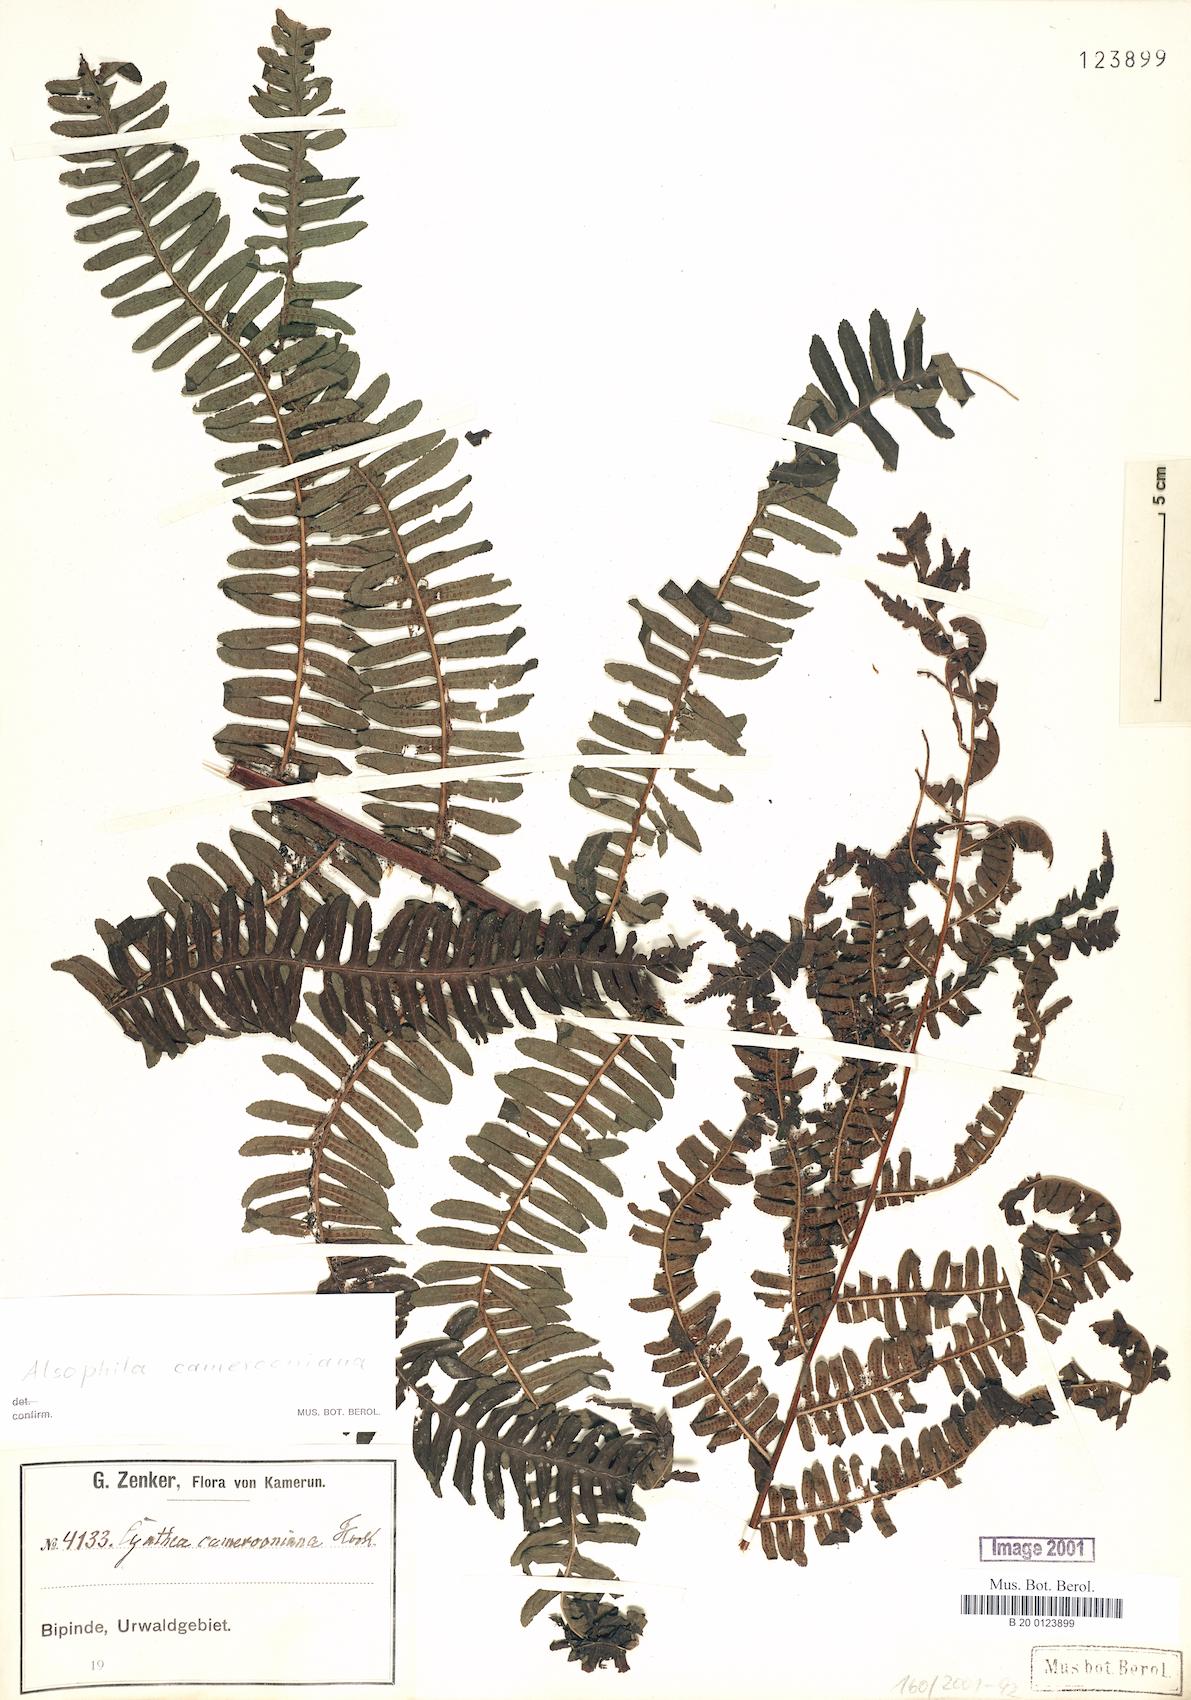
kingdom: Plantae
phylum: Tracheophyta
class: Polypodiopsida
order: Cyatheales
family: Cyatheaceae
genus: Alsophila
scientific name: Alsophila camerooniana
